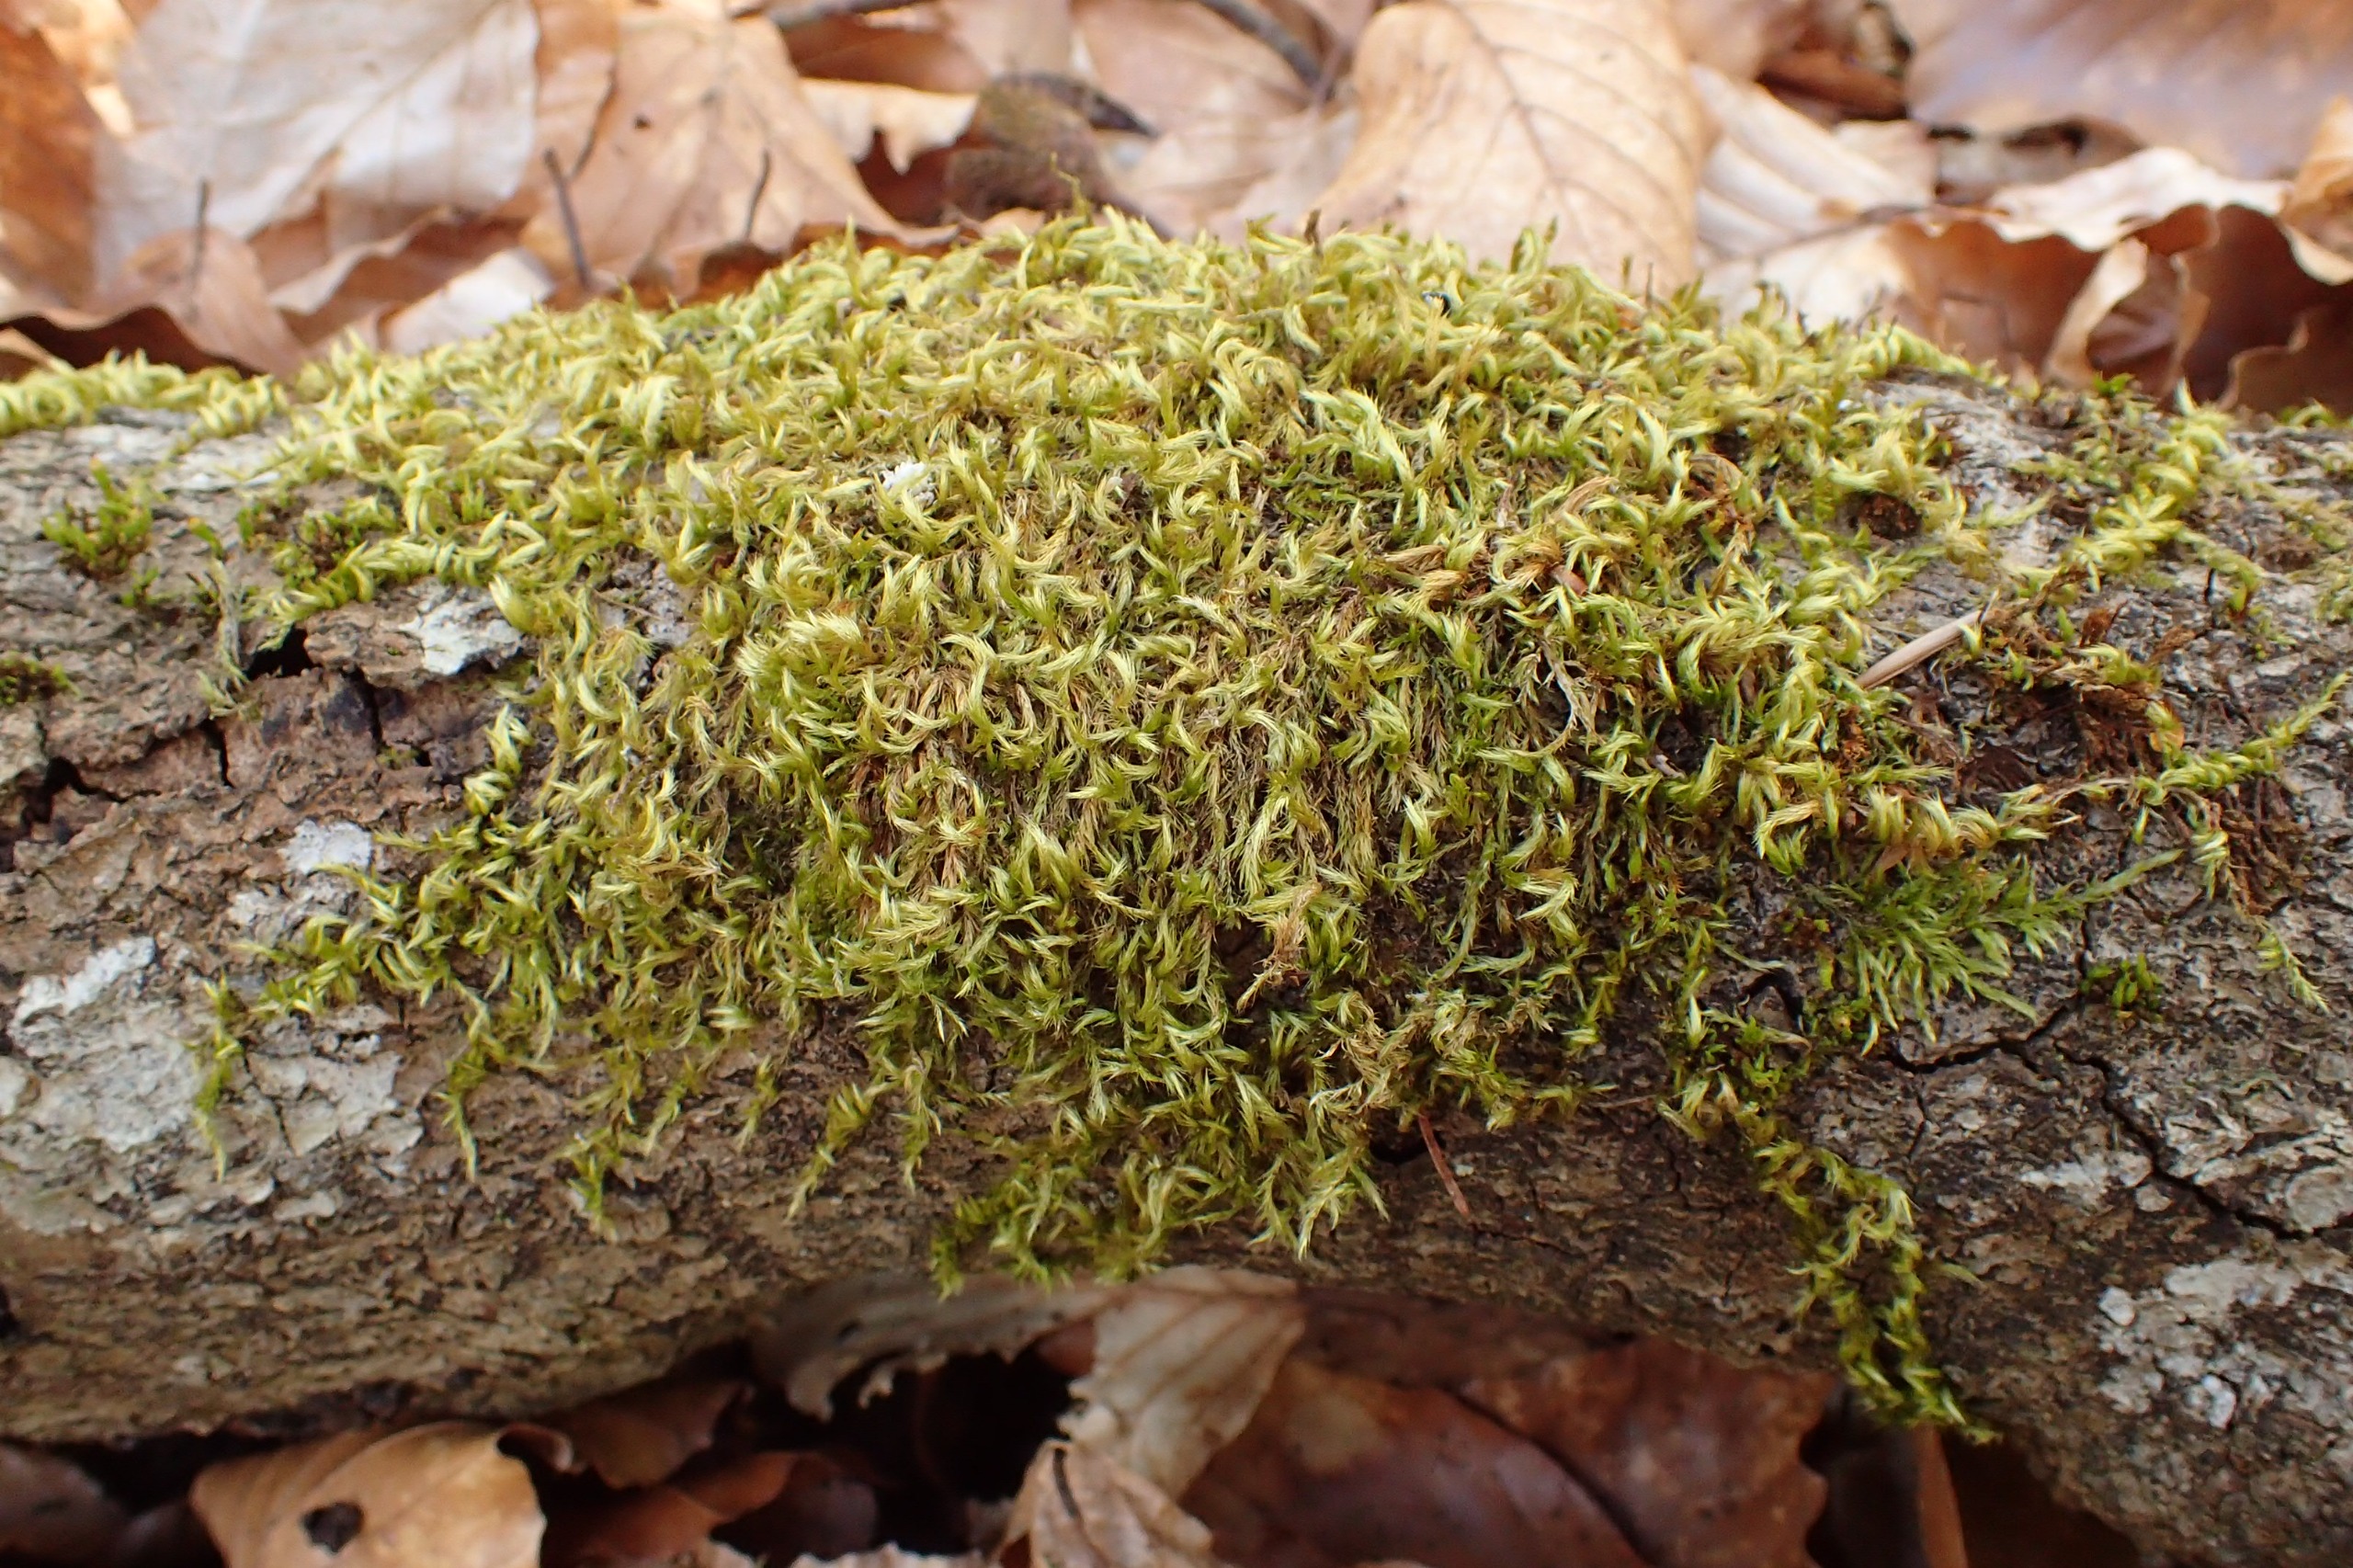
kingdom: Plantae
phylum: Bryophyta
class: Bryopsida
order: Hypnales
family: Brachytheciaceae
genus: Homalothecium
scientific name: Homalothecium sericeum
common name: Krybende silkemos
